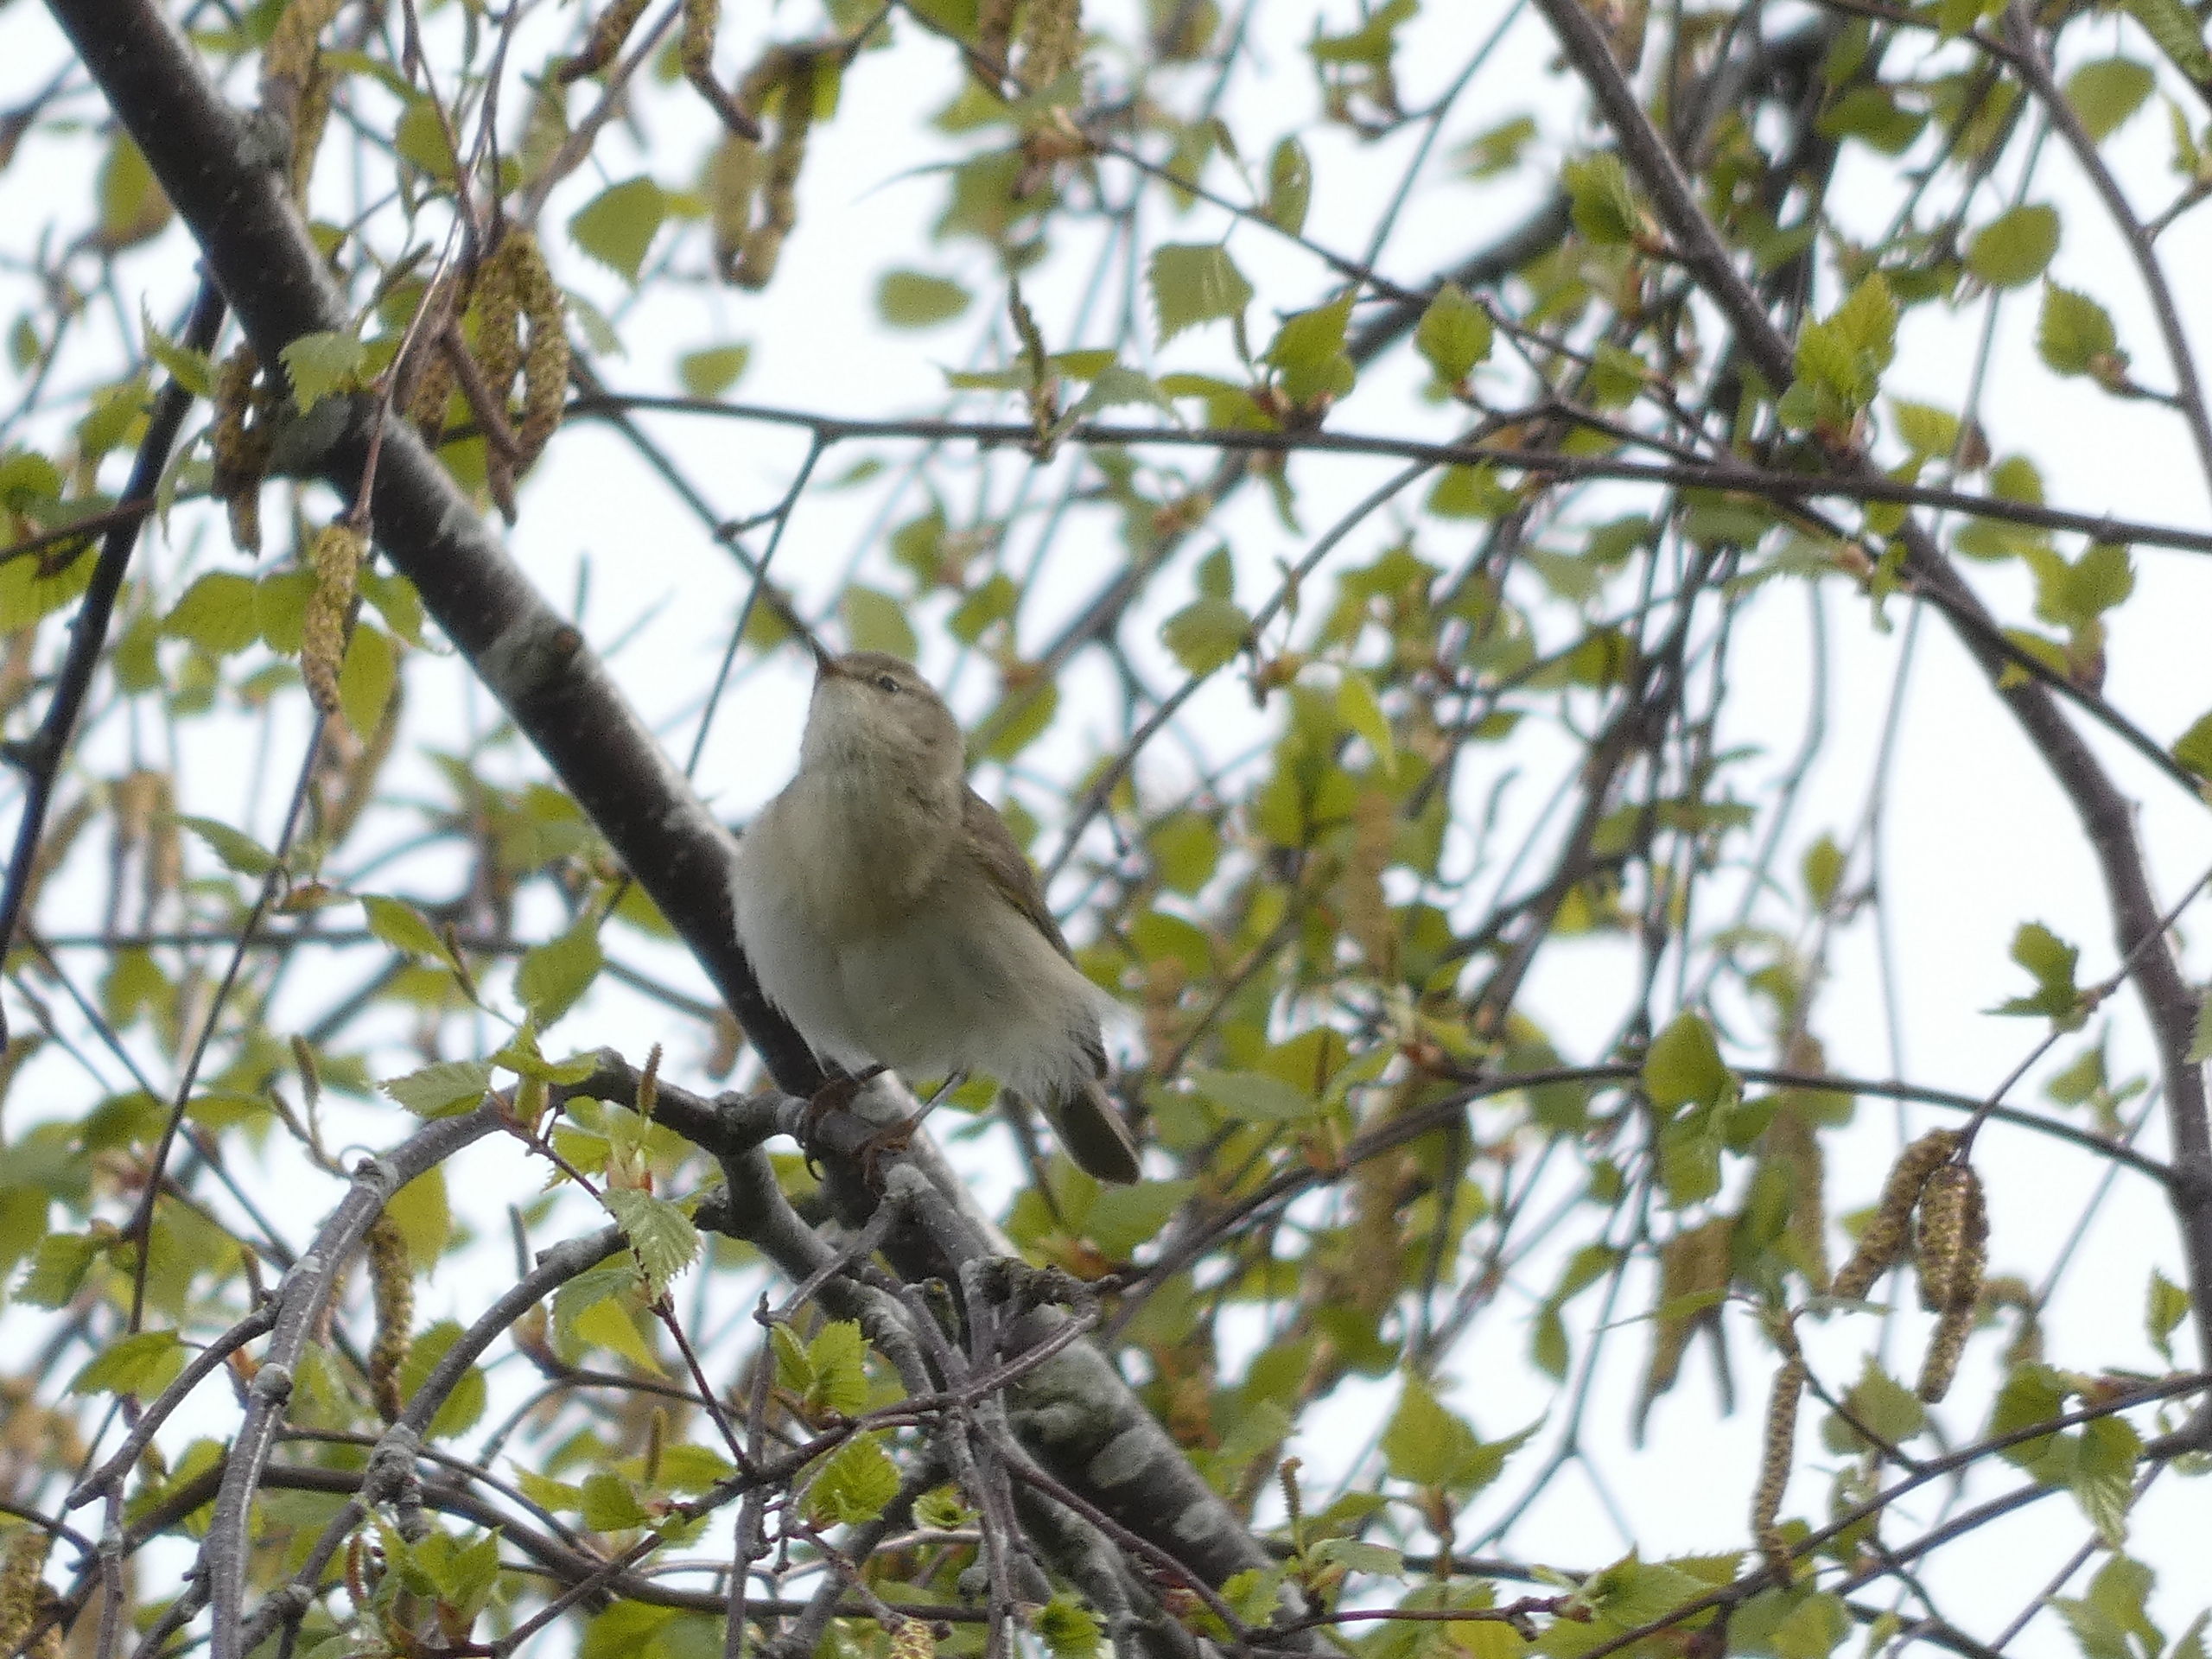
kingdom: Animalia
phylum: Chordata
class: Aves
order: Passeriformes
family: Phylloscopidae
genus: Phylloscopus
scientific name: Phylloscopus trochilus
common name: Løvsanger
